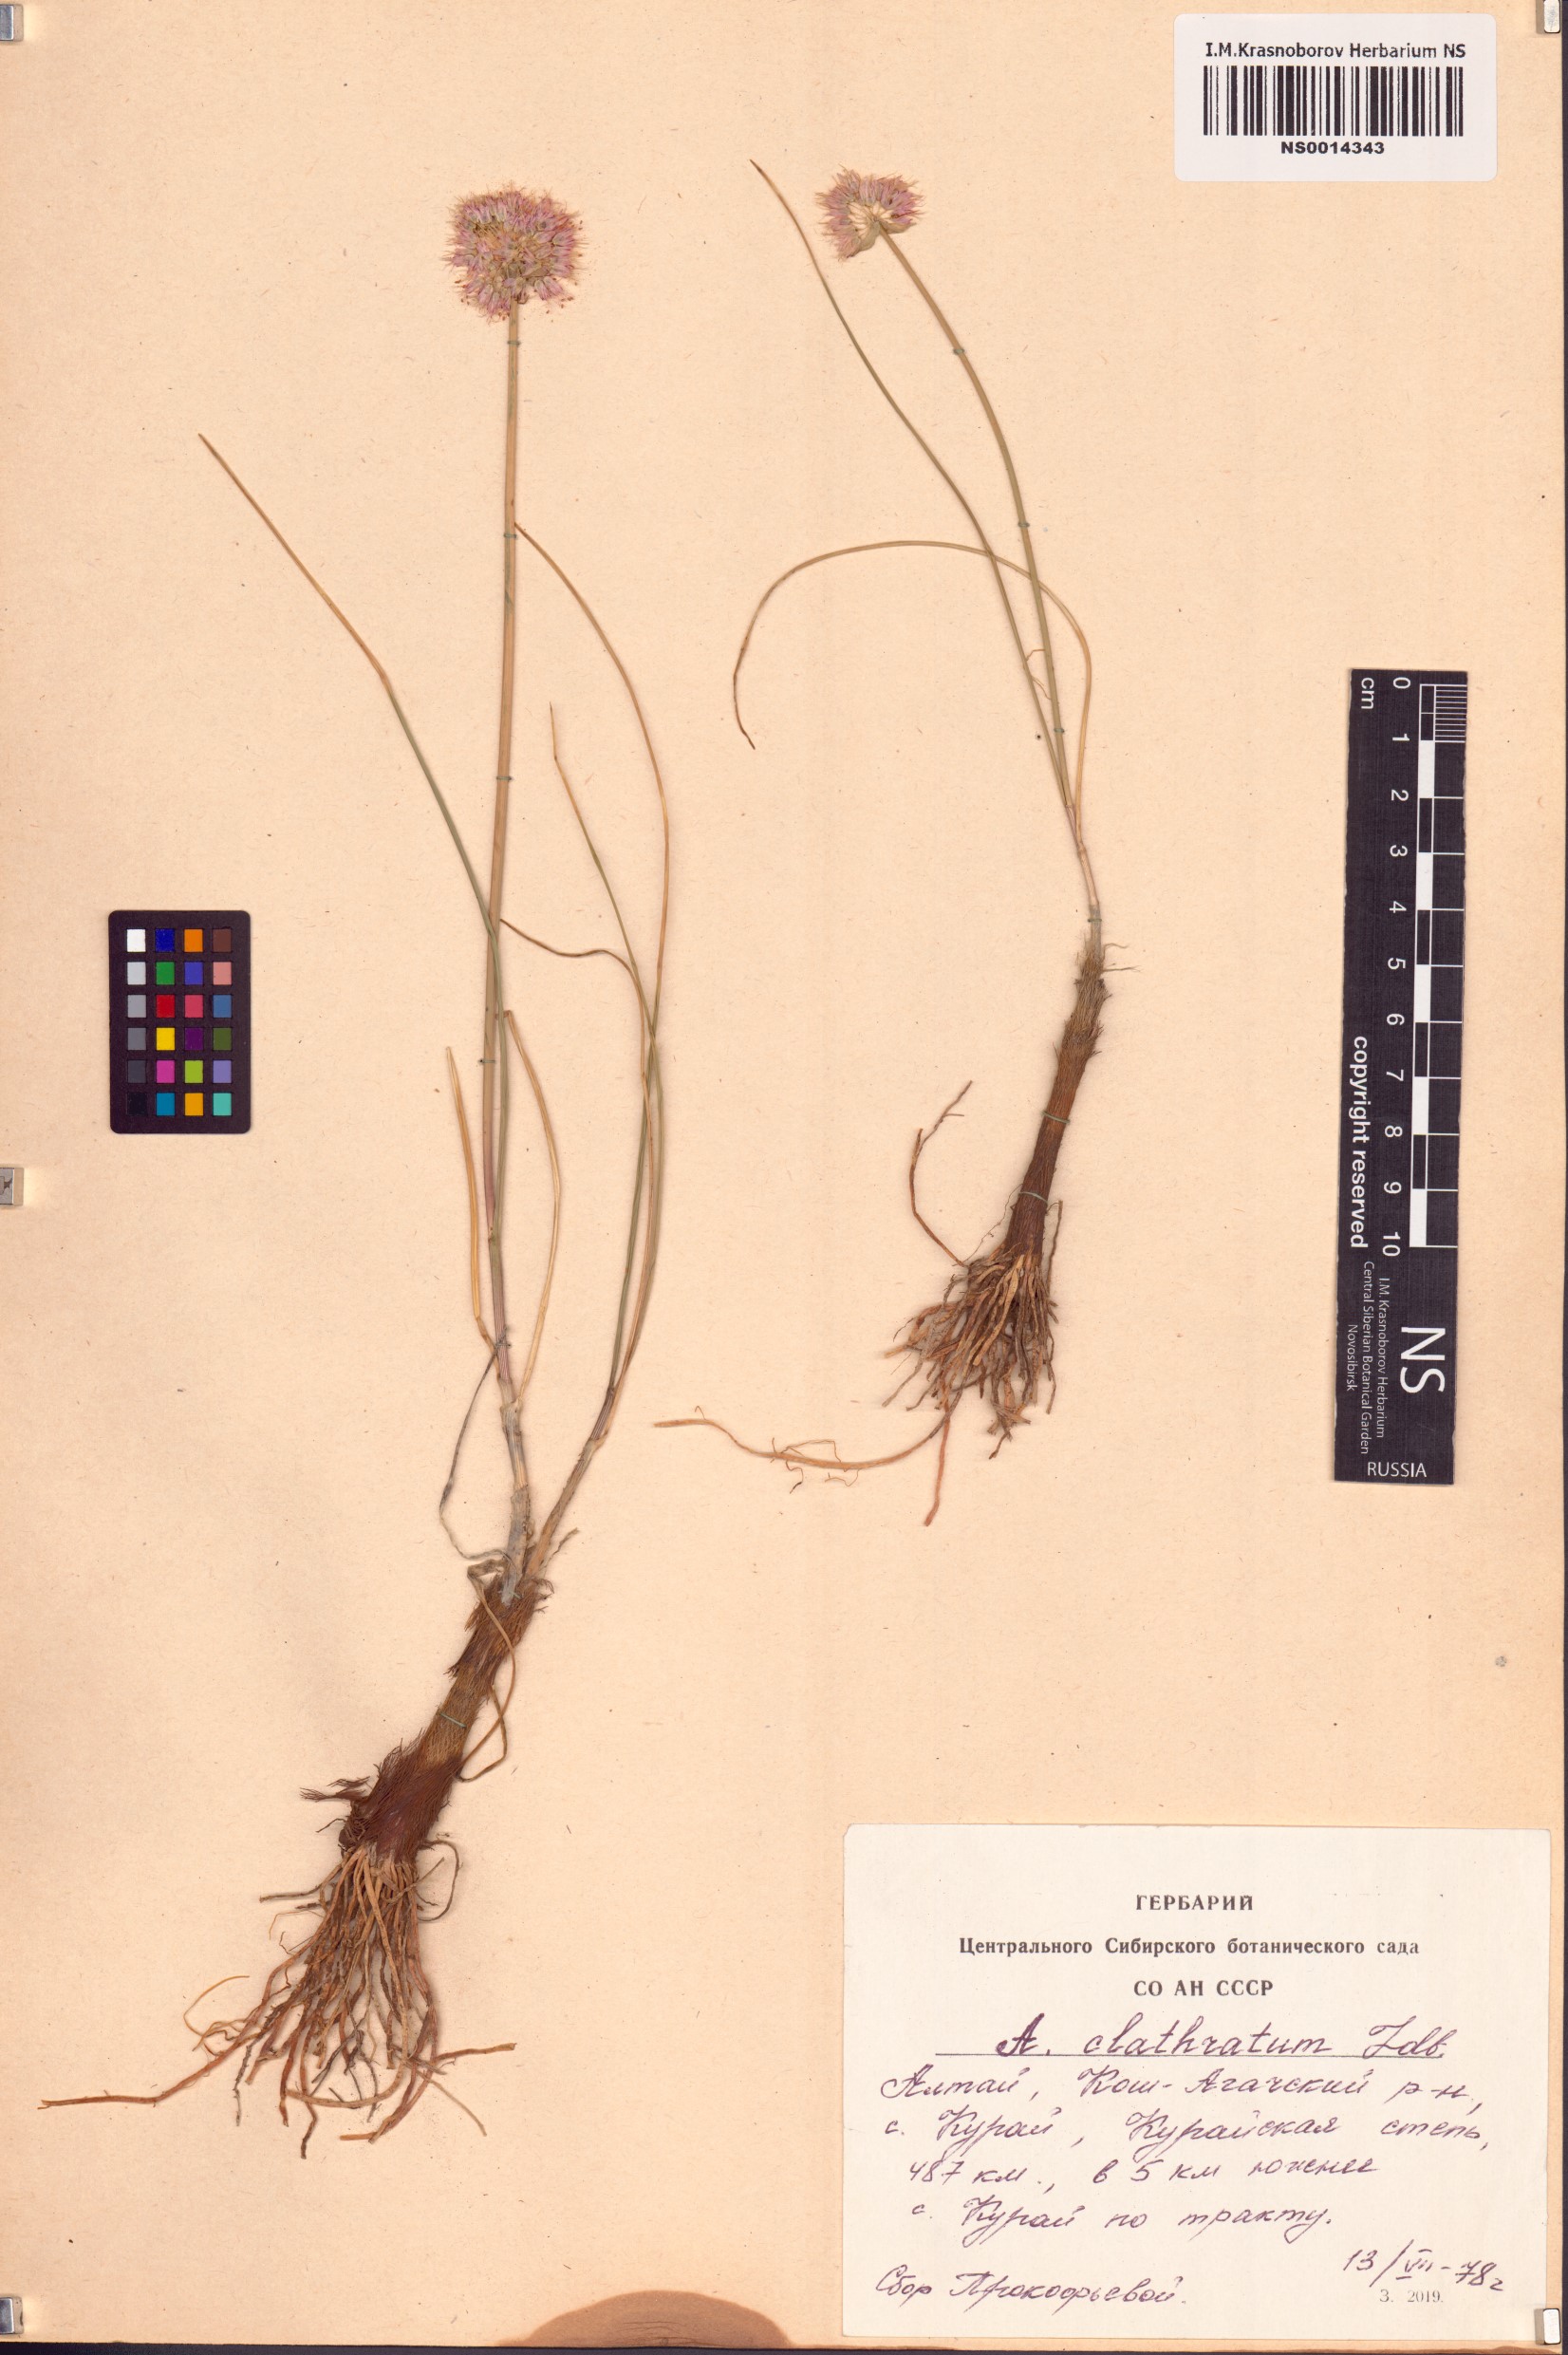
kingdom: Plantae
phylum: Tracheophyta
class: Liliopsida
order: Asparagales
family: Amaryllidaceae
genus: Allium
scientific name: Allium clathratum
